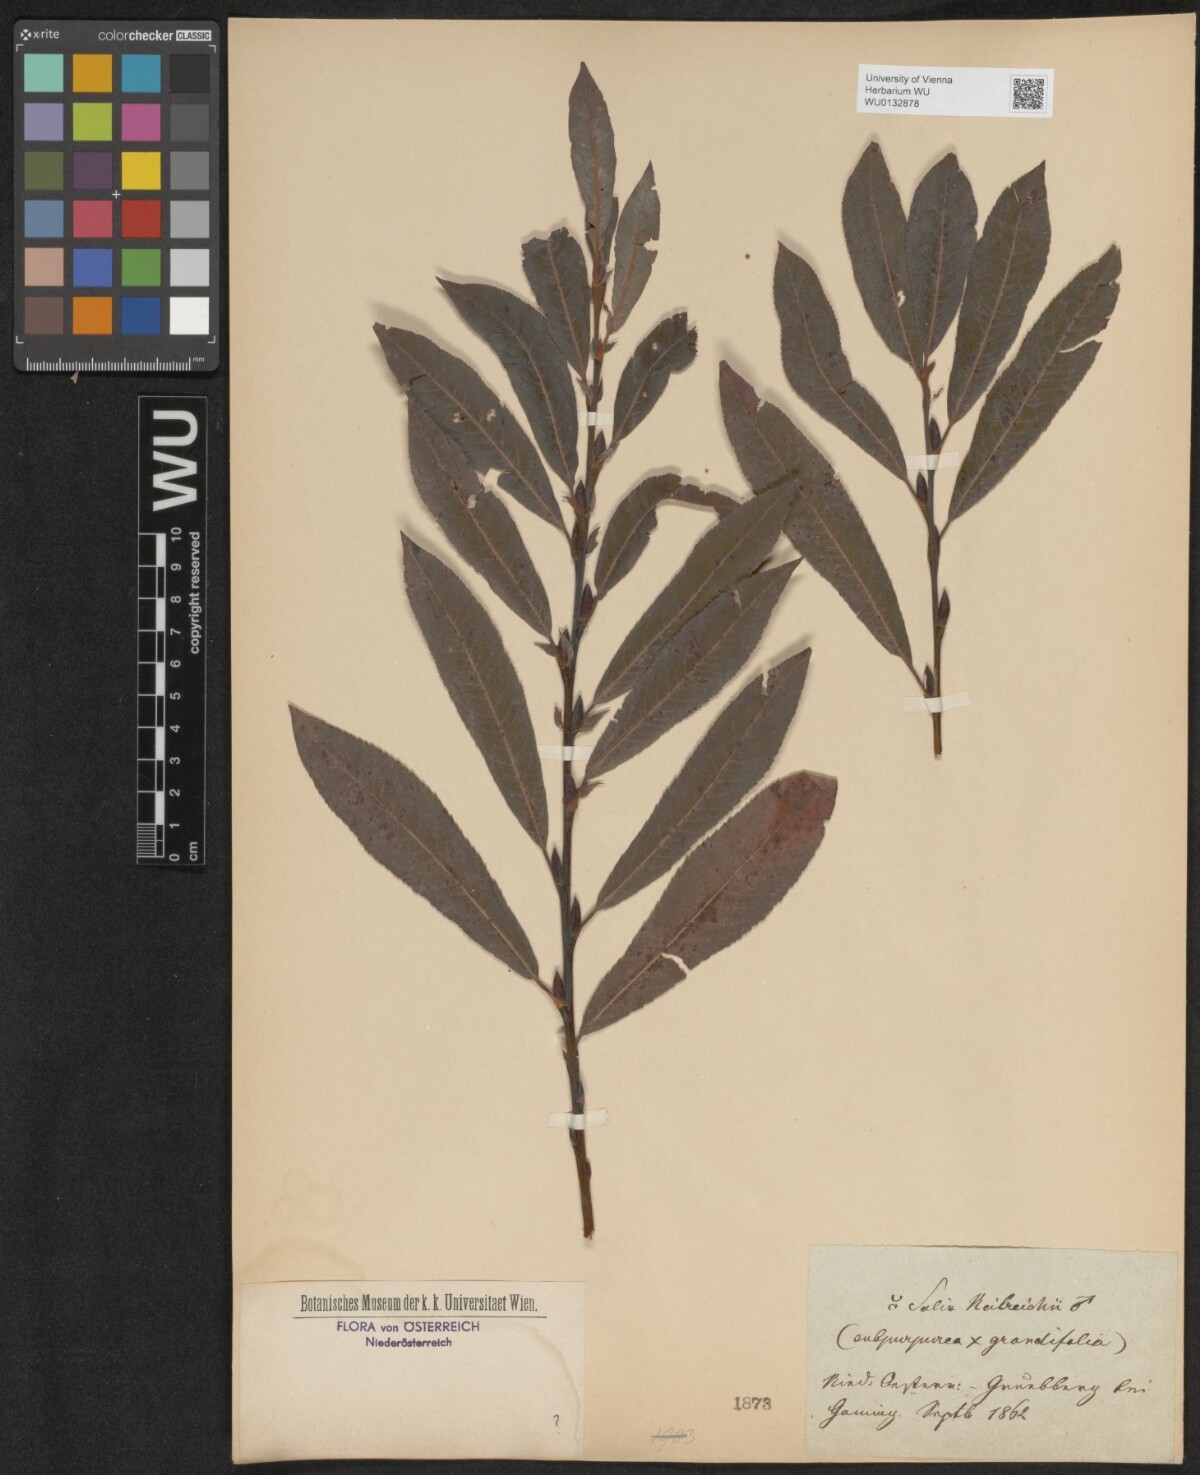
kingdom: Plantae
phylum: Tracheophyta
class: Magnoliopsida
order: Malpighiales
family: Salicaceae
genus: Salix
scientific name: Salix austriaca
